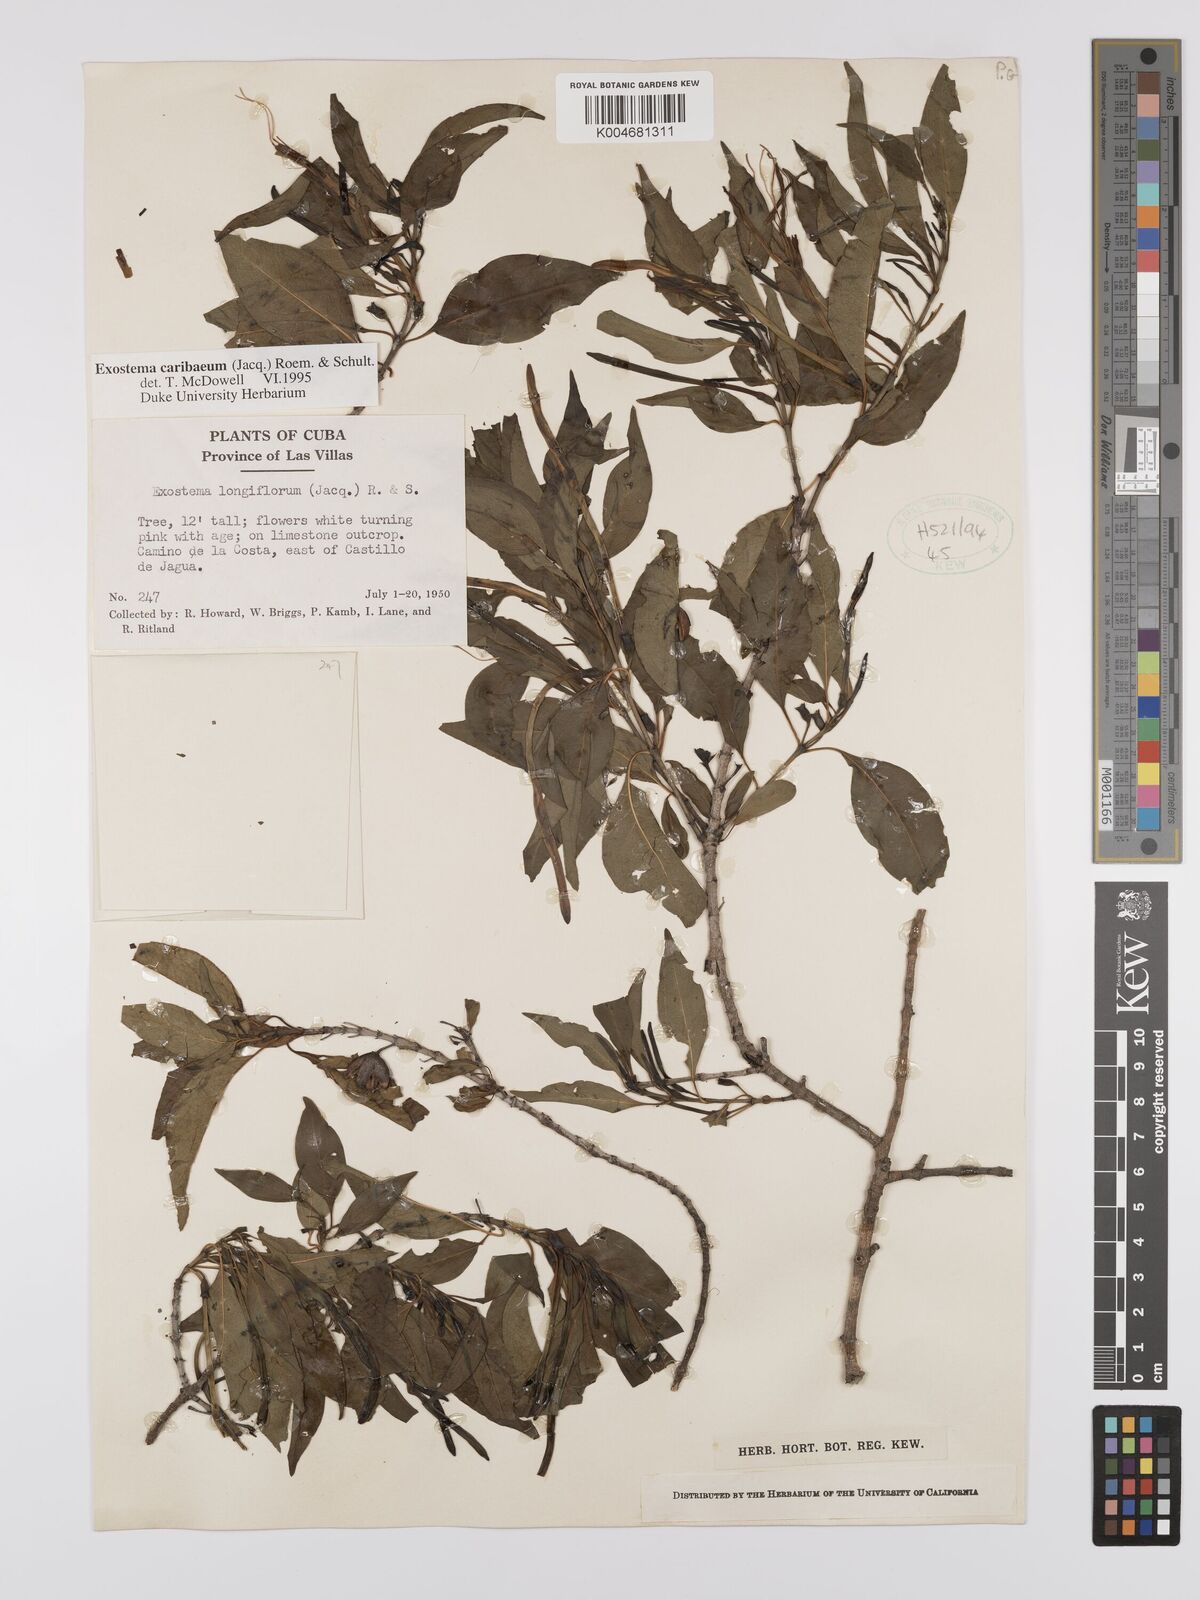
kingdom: Plantae
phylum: Tracheophyta
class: Magnoliopsida
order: Gentianales
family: Rubiaceae
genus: Exostema
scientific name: Exostema caribaeum
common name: Princewood
